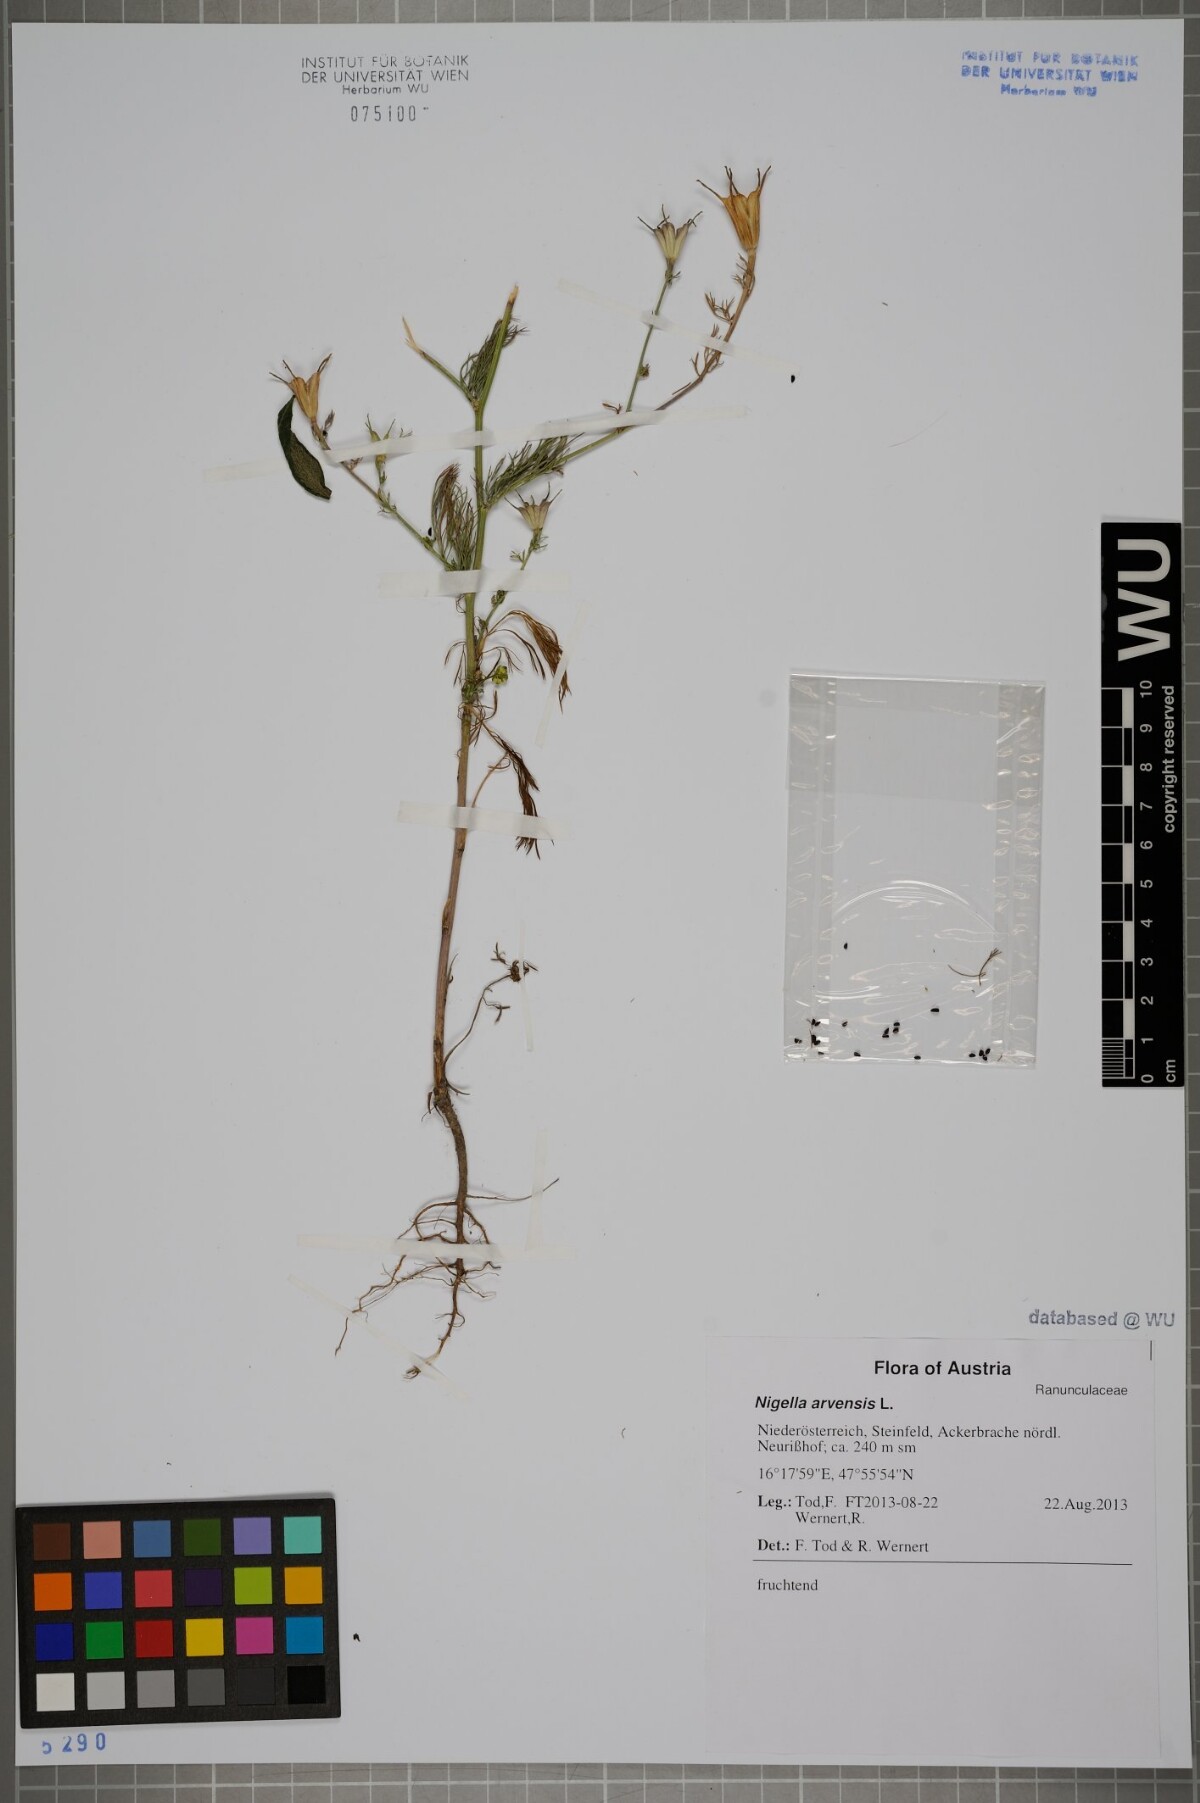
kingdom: Plantae
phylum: Tracheophyta
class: Magnoliopsida
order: Ranunculales
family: Ranunculaceae
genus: Nigella
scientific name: Nigella arvensis
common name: Wild fennel-flower
